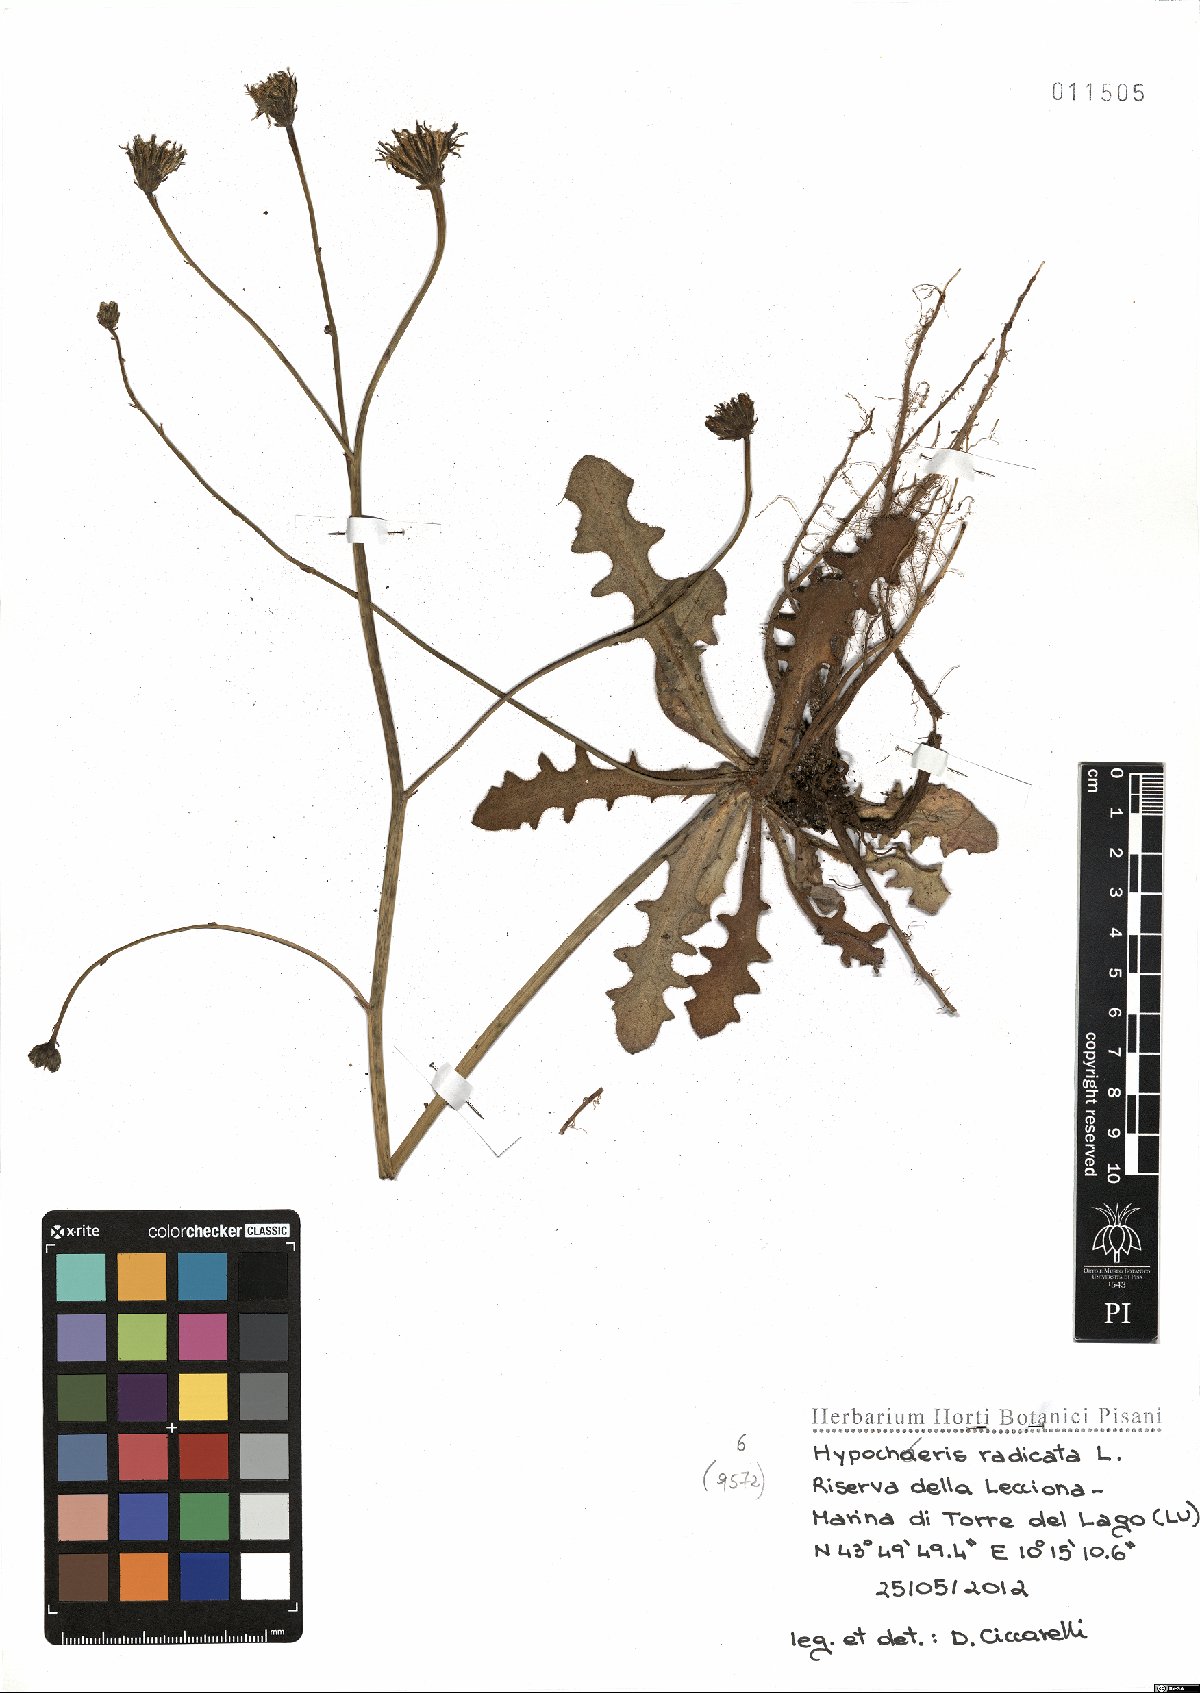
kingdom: Plantae
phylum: Tracheophyta
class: Magnoliopsida
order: Asterales
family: Asteraceae
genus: Hypochoeris
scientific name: Hypochoeris radicata
